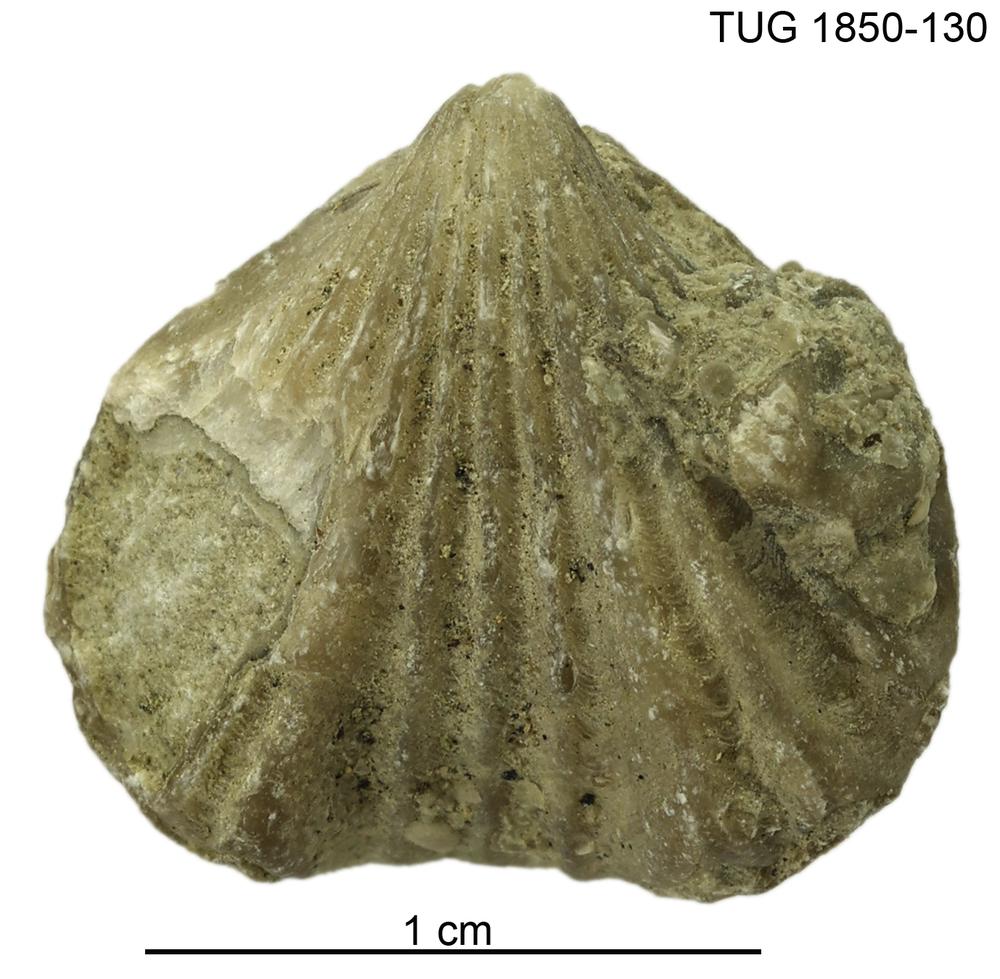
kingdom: Animalia
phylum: Brachiopoda
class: Rhynchonellata
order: Rhynchonellida
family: Machaerariidae
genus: Ferganella
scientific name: Ferganella
